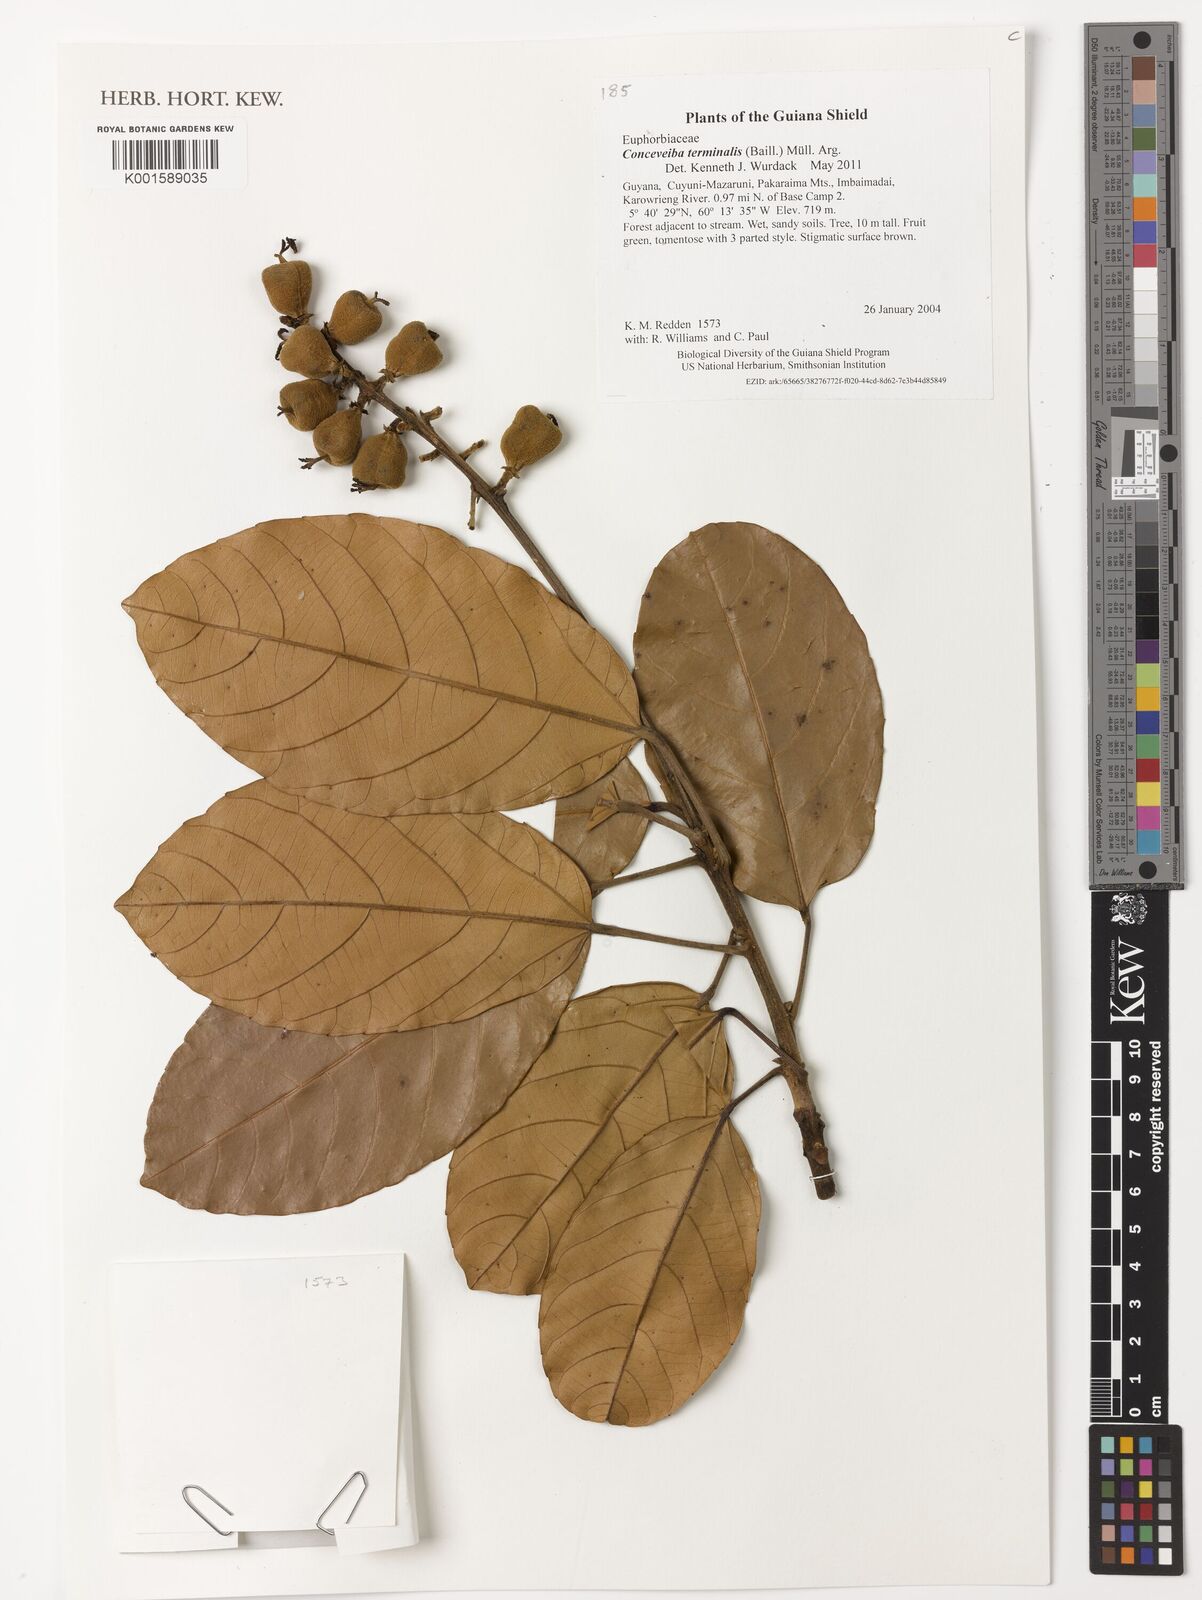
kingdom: Plantae
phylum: Tracheophyta
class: Magnoliopsida
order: Malpighiales
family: Euphorbiaceae
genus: Conceveiba
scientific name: Conceveiba terminalis
